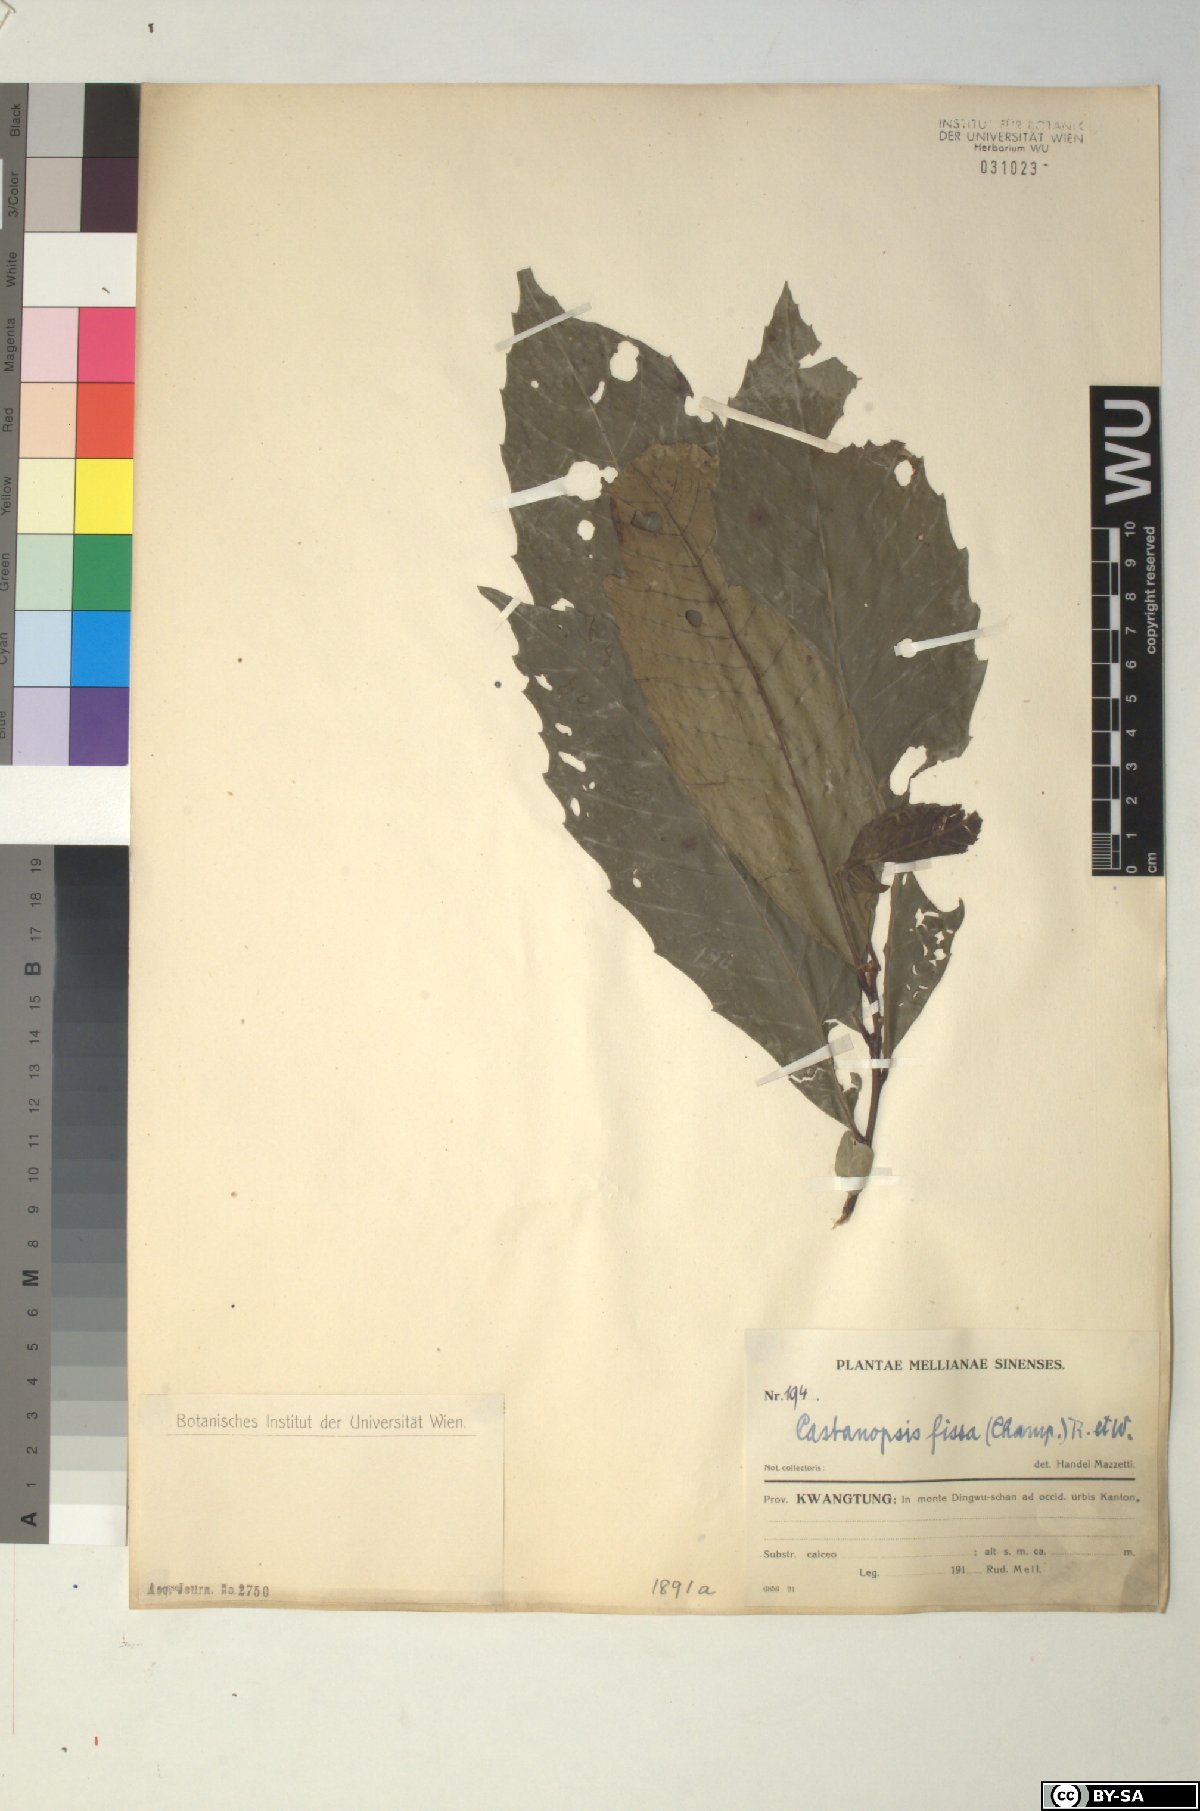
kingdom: Plantae
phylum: Tracheophyta
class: Magnoliopsida
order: Fagales
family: Fagaceae
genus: Castanopsis
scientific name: Castanopsis fissa
